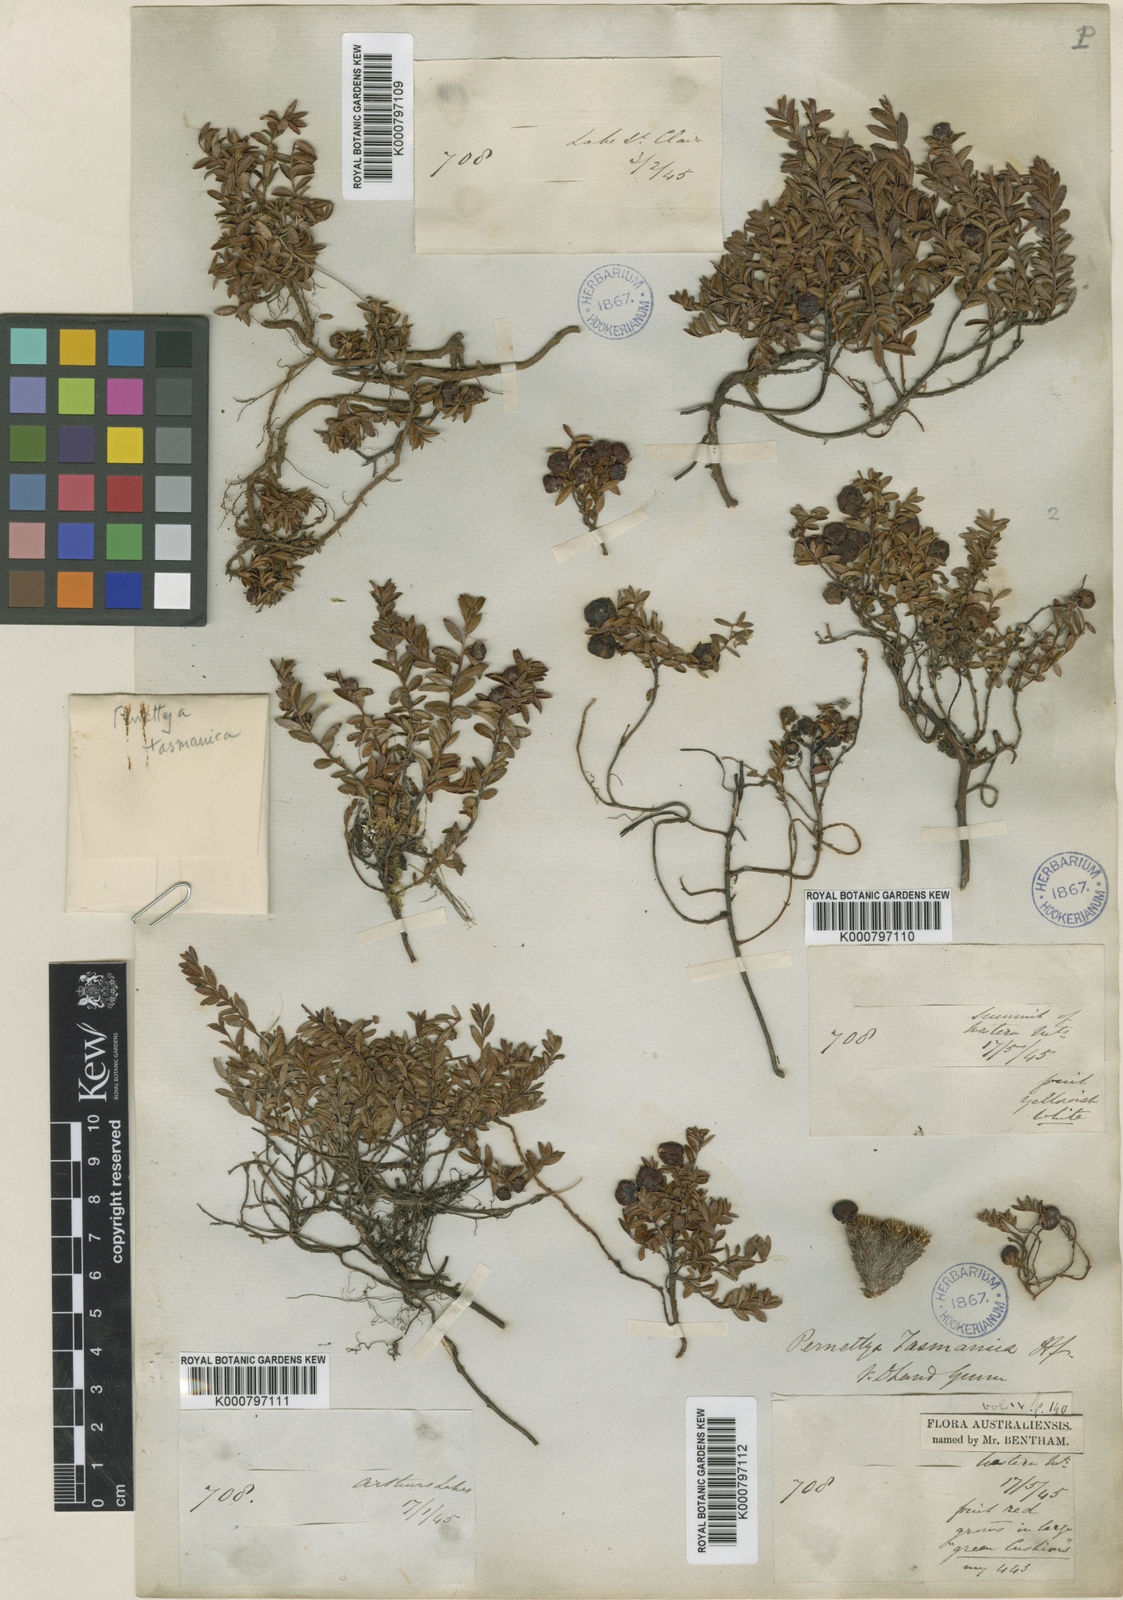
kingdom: Plantae
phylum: Tracheophyta
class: Magnoliopsida
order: Ericales
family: Ericaceae
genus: Gaultheria
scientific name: Gaultheria
